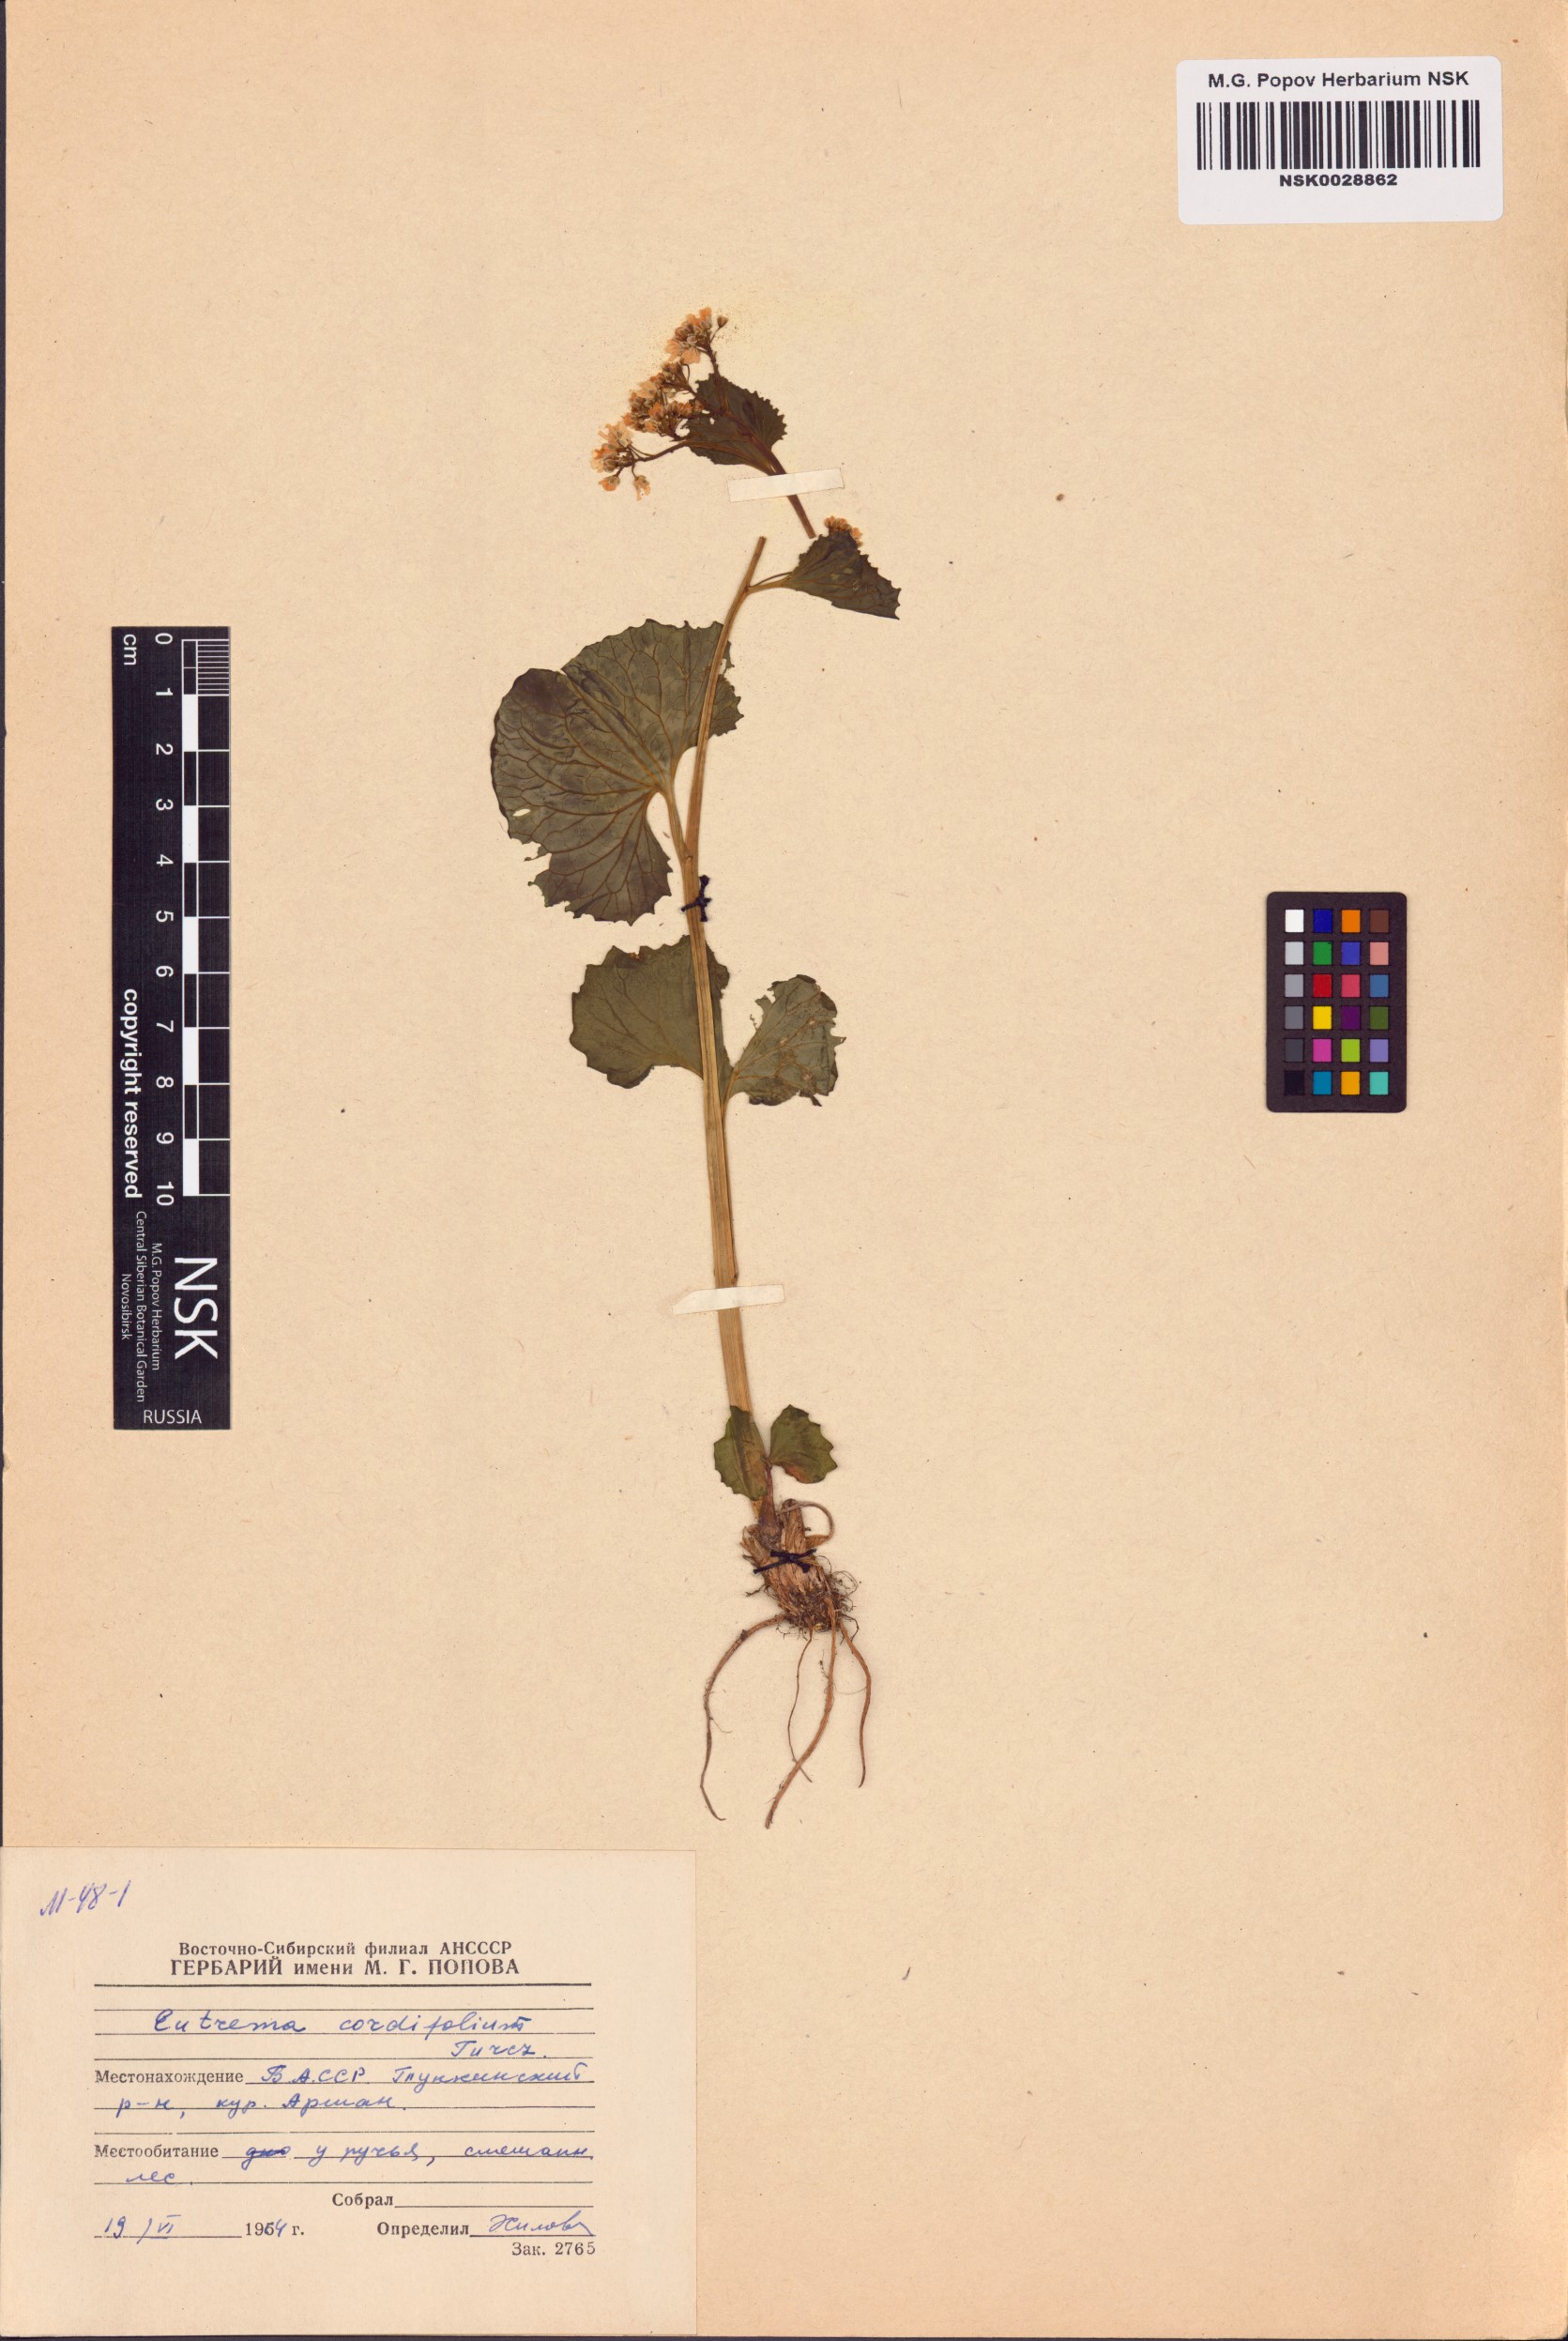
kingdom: Plantae
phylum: Tracheophyta
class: Magnoliopsida
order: Brassicales
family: Brassicaceae
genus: Eutrema
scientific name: Eutrema cordifolium
